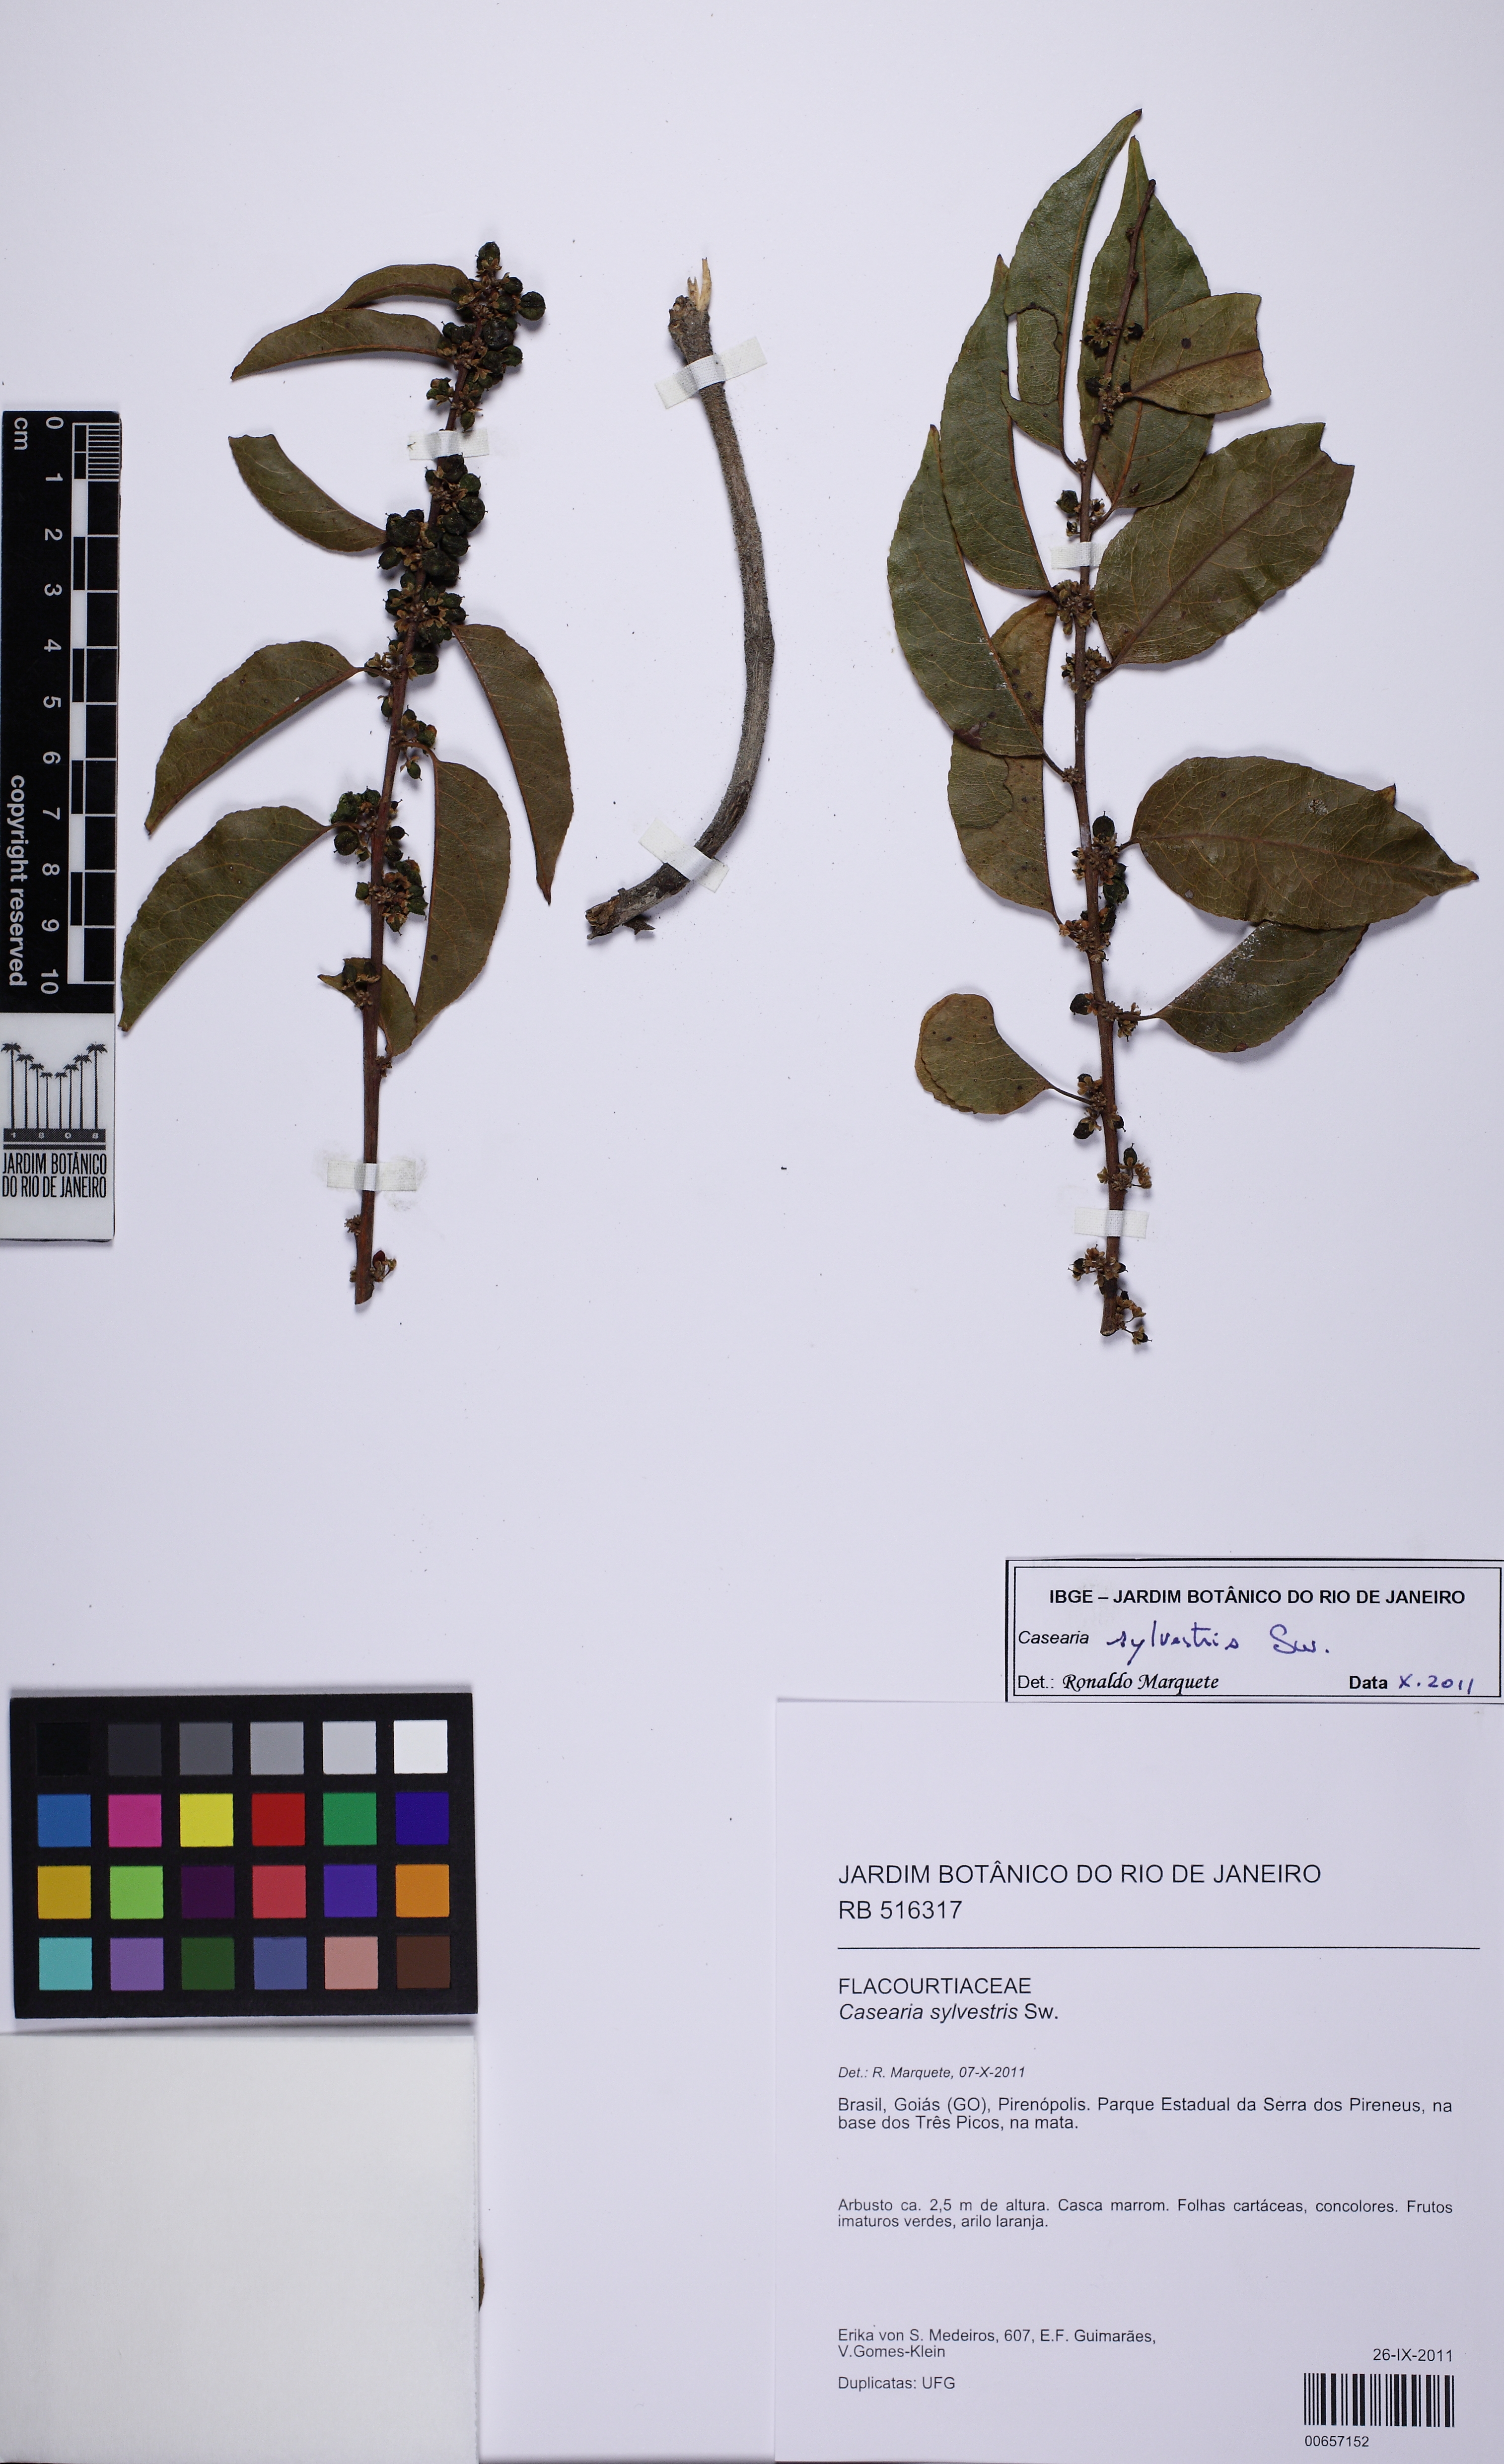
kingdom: Plantae
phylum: Tracheophyta
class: Magnoliopsida
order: Malpighiales
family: Salicaceae
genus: Casearia
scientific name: Casearia sylvestris
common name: Wild sage
